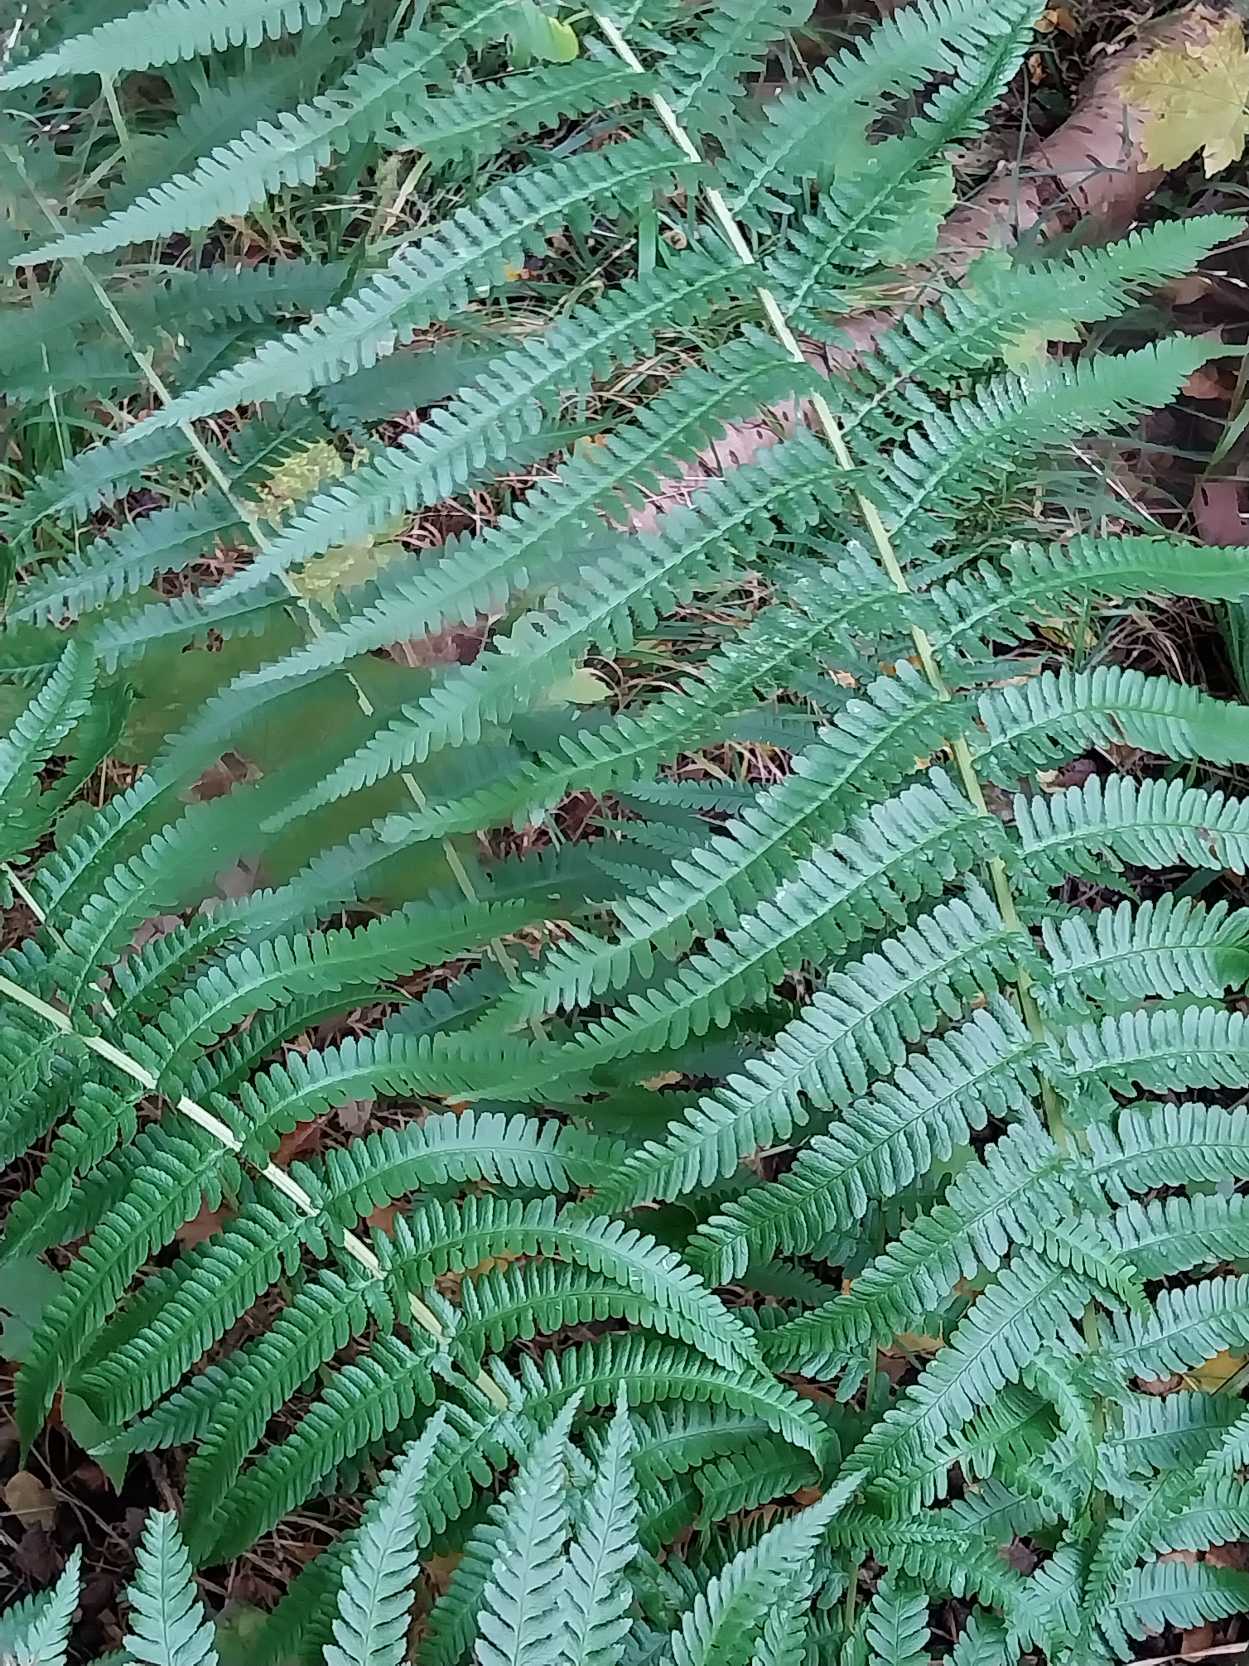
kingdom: Plantae
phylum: Tracheophyta
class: Polypodiopsida
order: Polypodiales
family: Dryopteridaceae
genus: Dryopteris
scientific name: Dryopteris filix-mas
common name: Almindelig mangeløv
